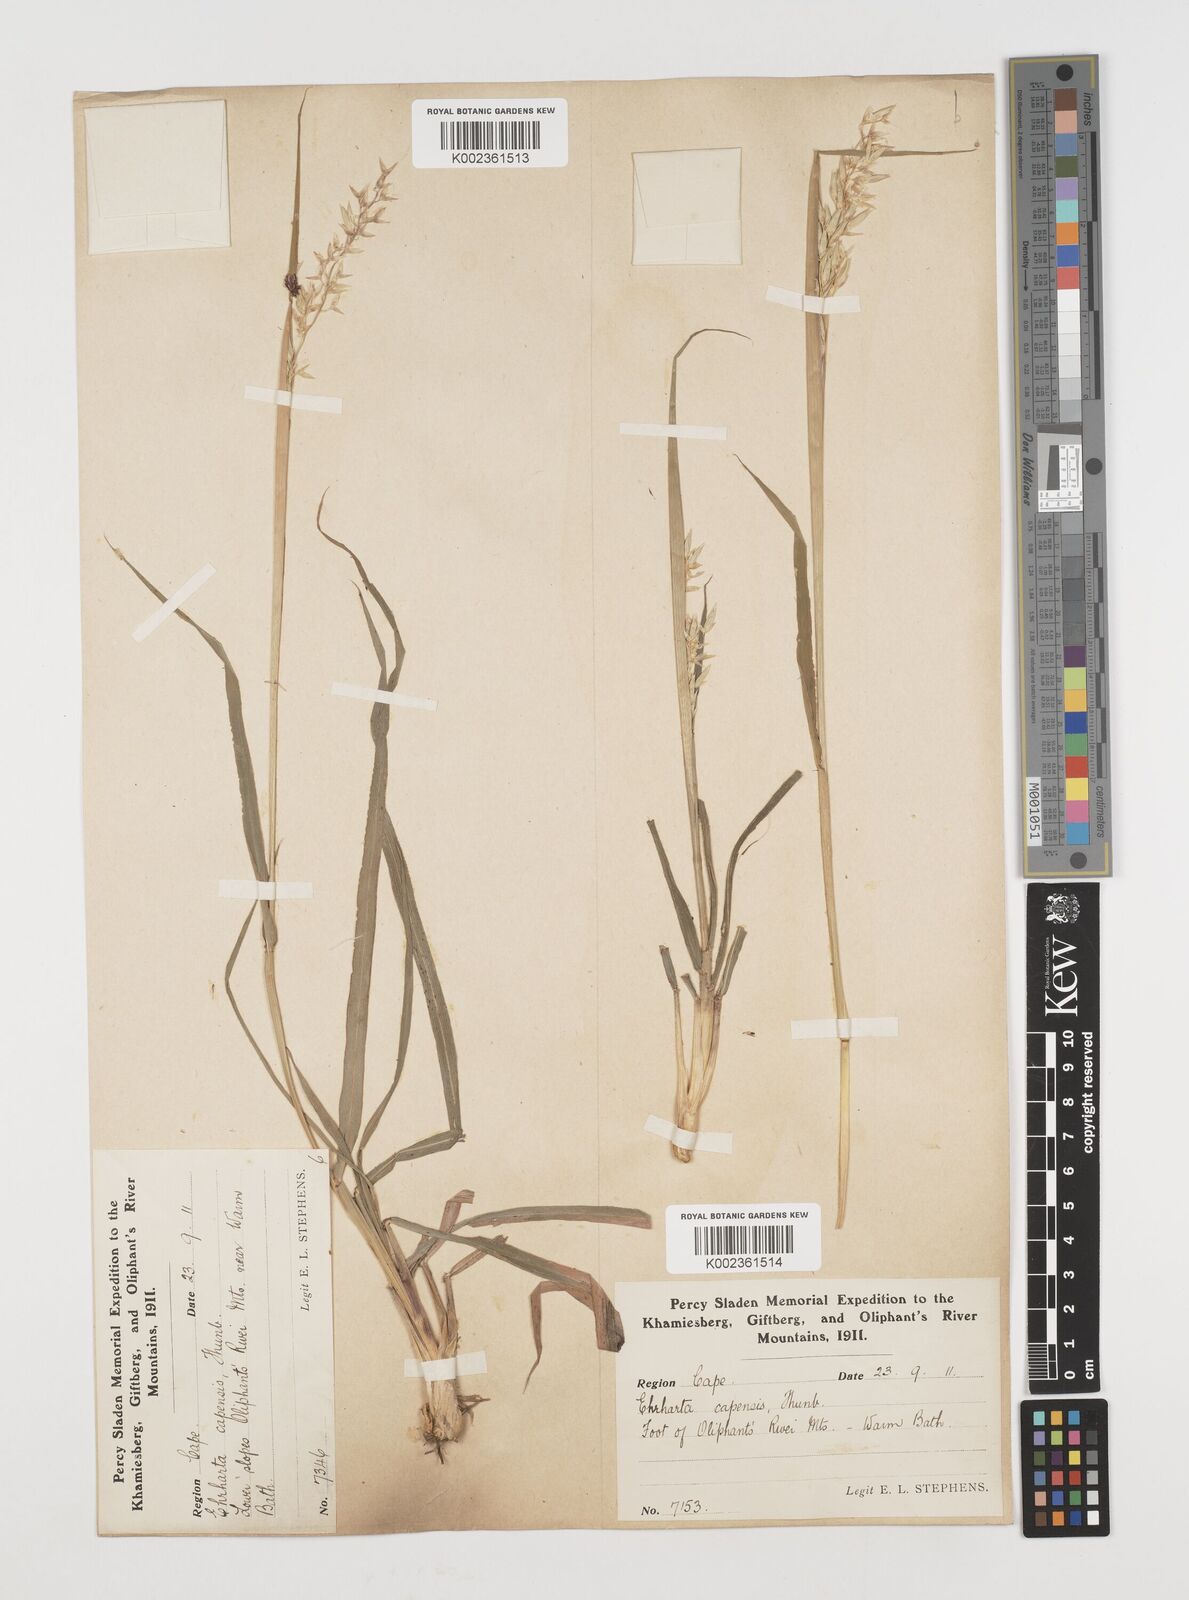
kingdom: Plantae
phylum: Tracheophyta
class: Liliopsida
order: Poales
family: Poaceae
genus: Ehrharta
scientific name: Ehrharta capensis
